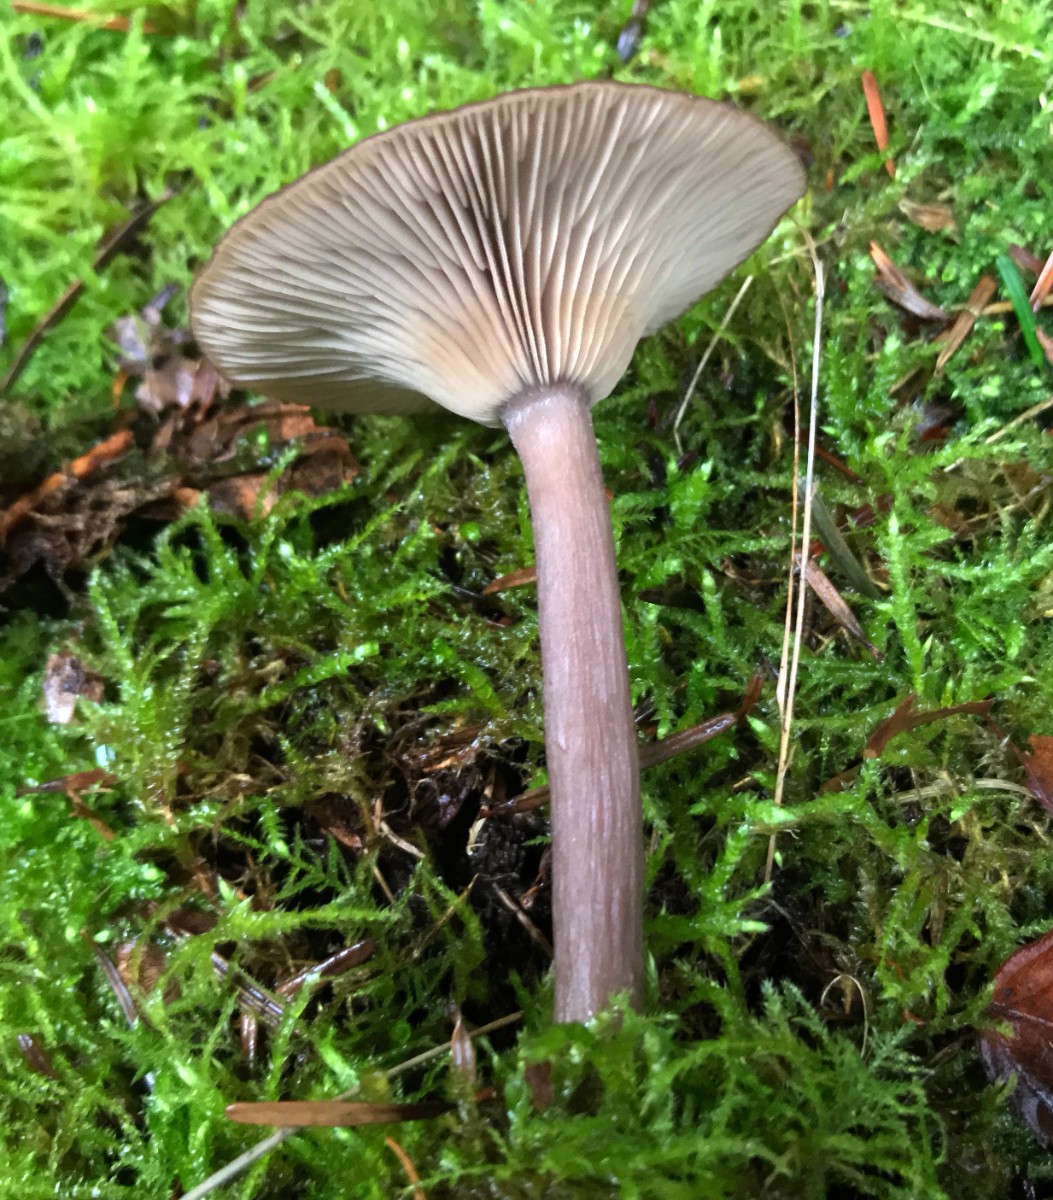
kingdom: Fungi
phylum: Basidiomycota
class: Agaricomycetes
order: Agaricales
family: Pseudoclitocybaceae
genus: Pseudoclitocybe
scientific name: Pseudoclitocybe cyathiformis
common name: almindelig bægertragthat
